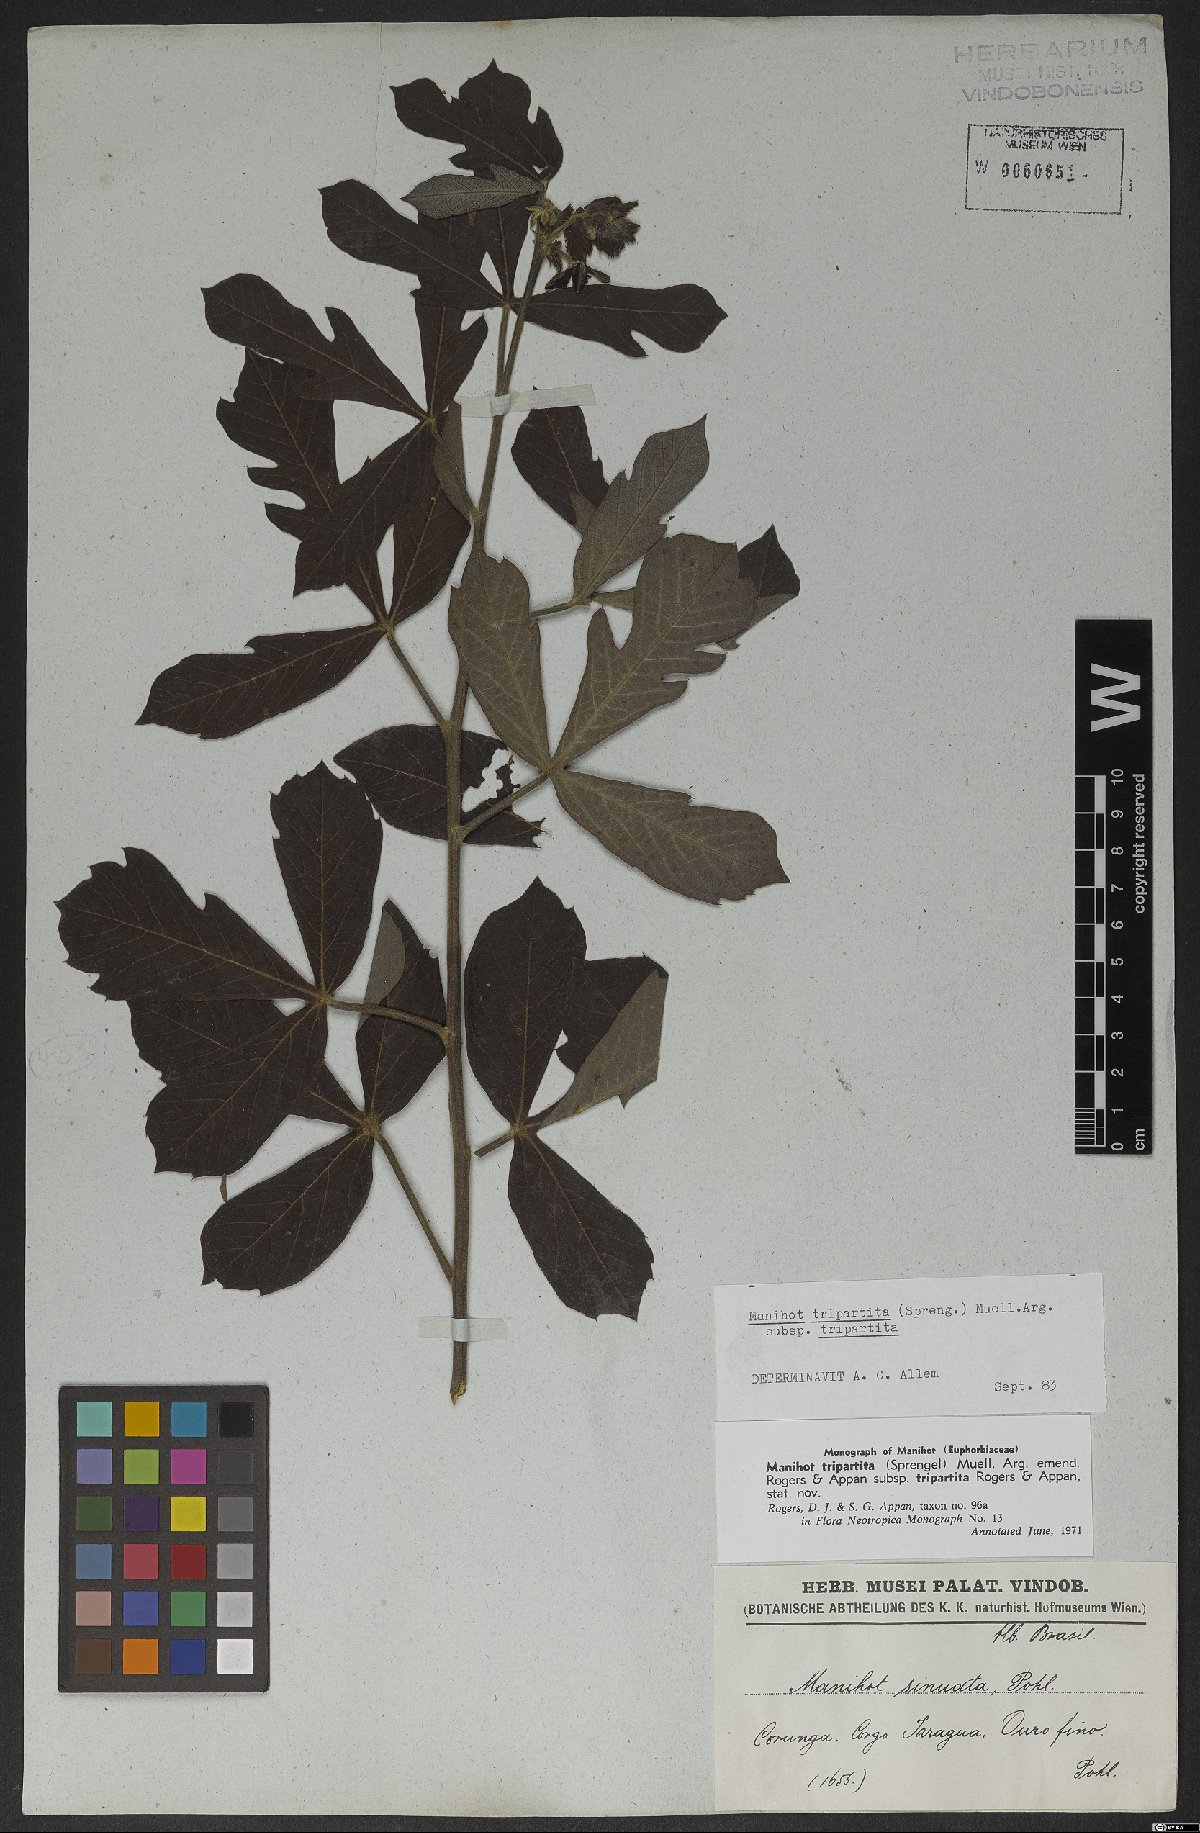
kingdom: Plantae
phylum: Tracheophyta
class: Magnoliopsida
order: Malpighiales
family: Euphorbiaceae
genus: Manihot
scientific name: Manihot tripartita
